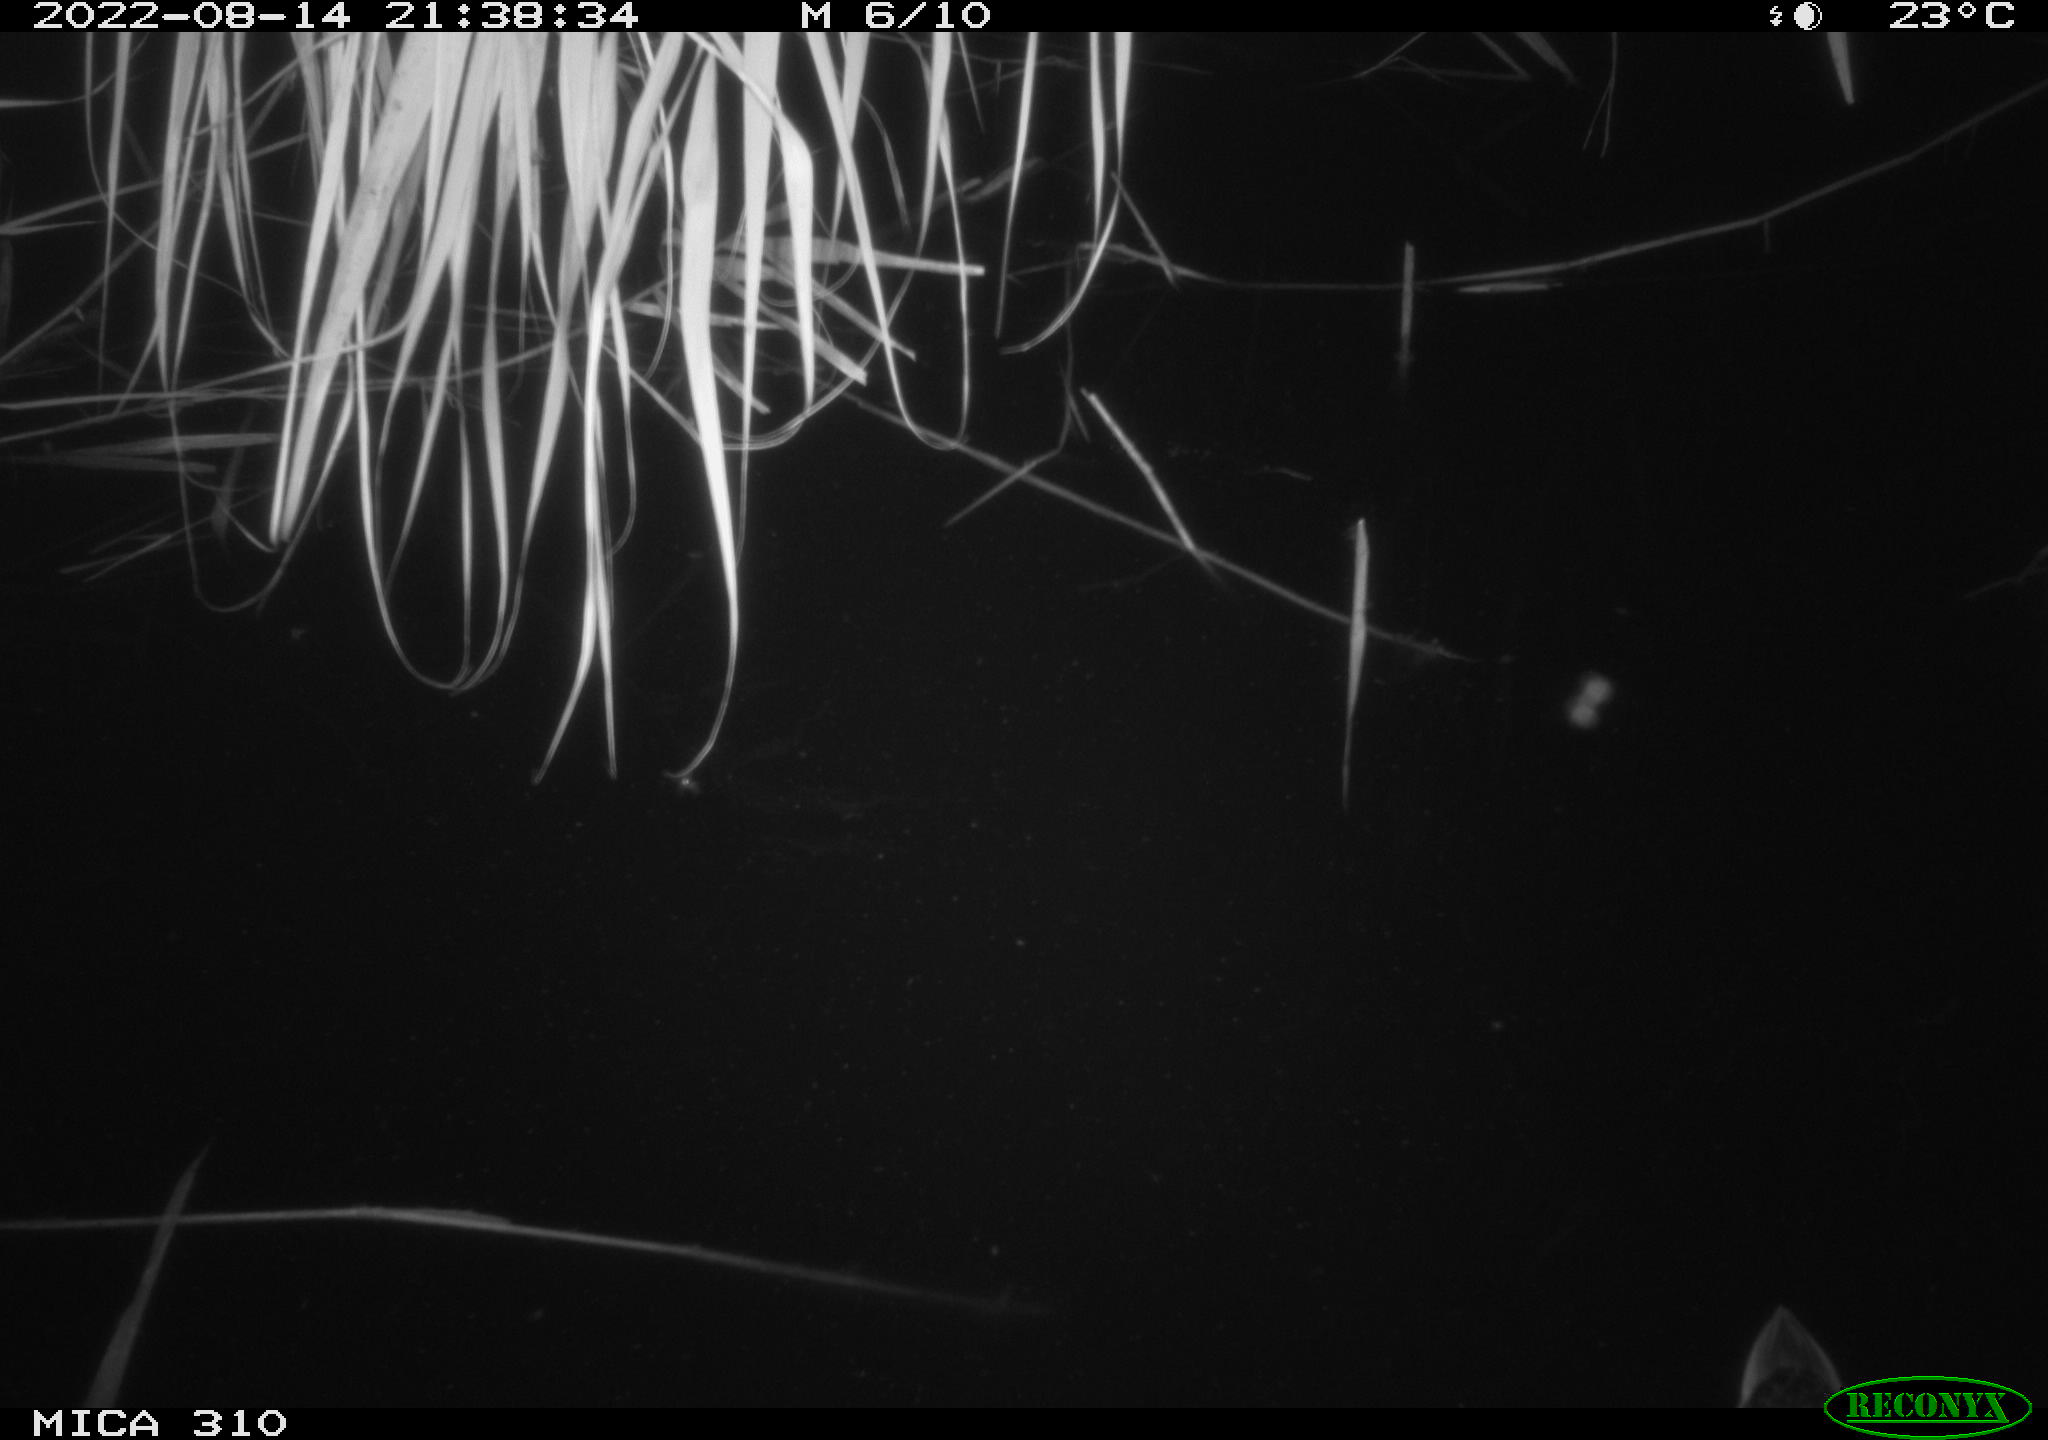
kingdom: Animalia
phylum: Chordata
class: Aves
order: Anseriformes
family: Anatidae
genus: Anas
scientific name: Anas platyrhynchos
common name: Mallard
